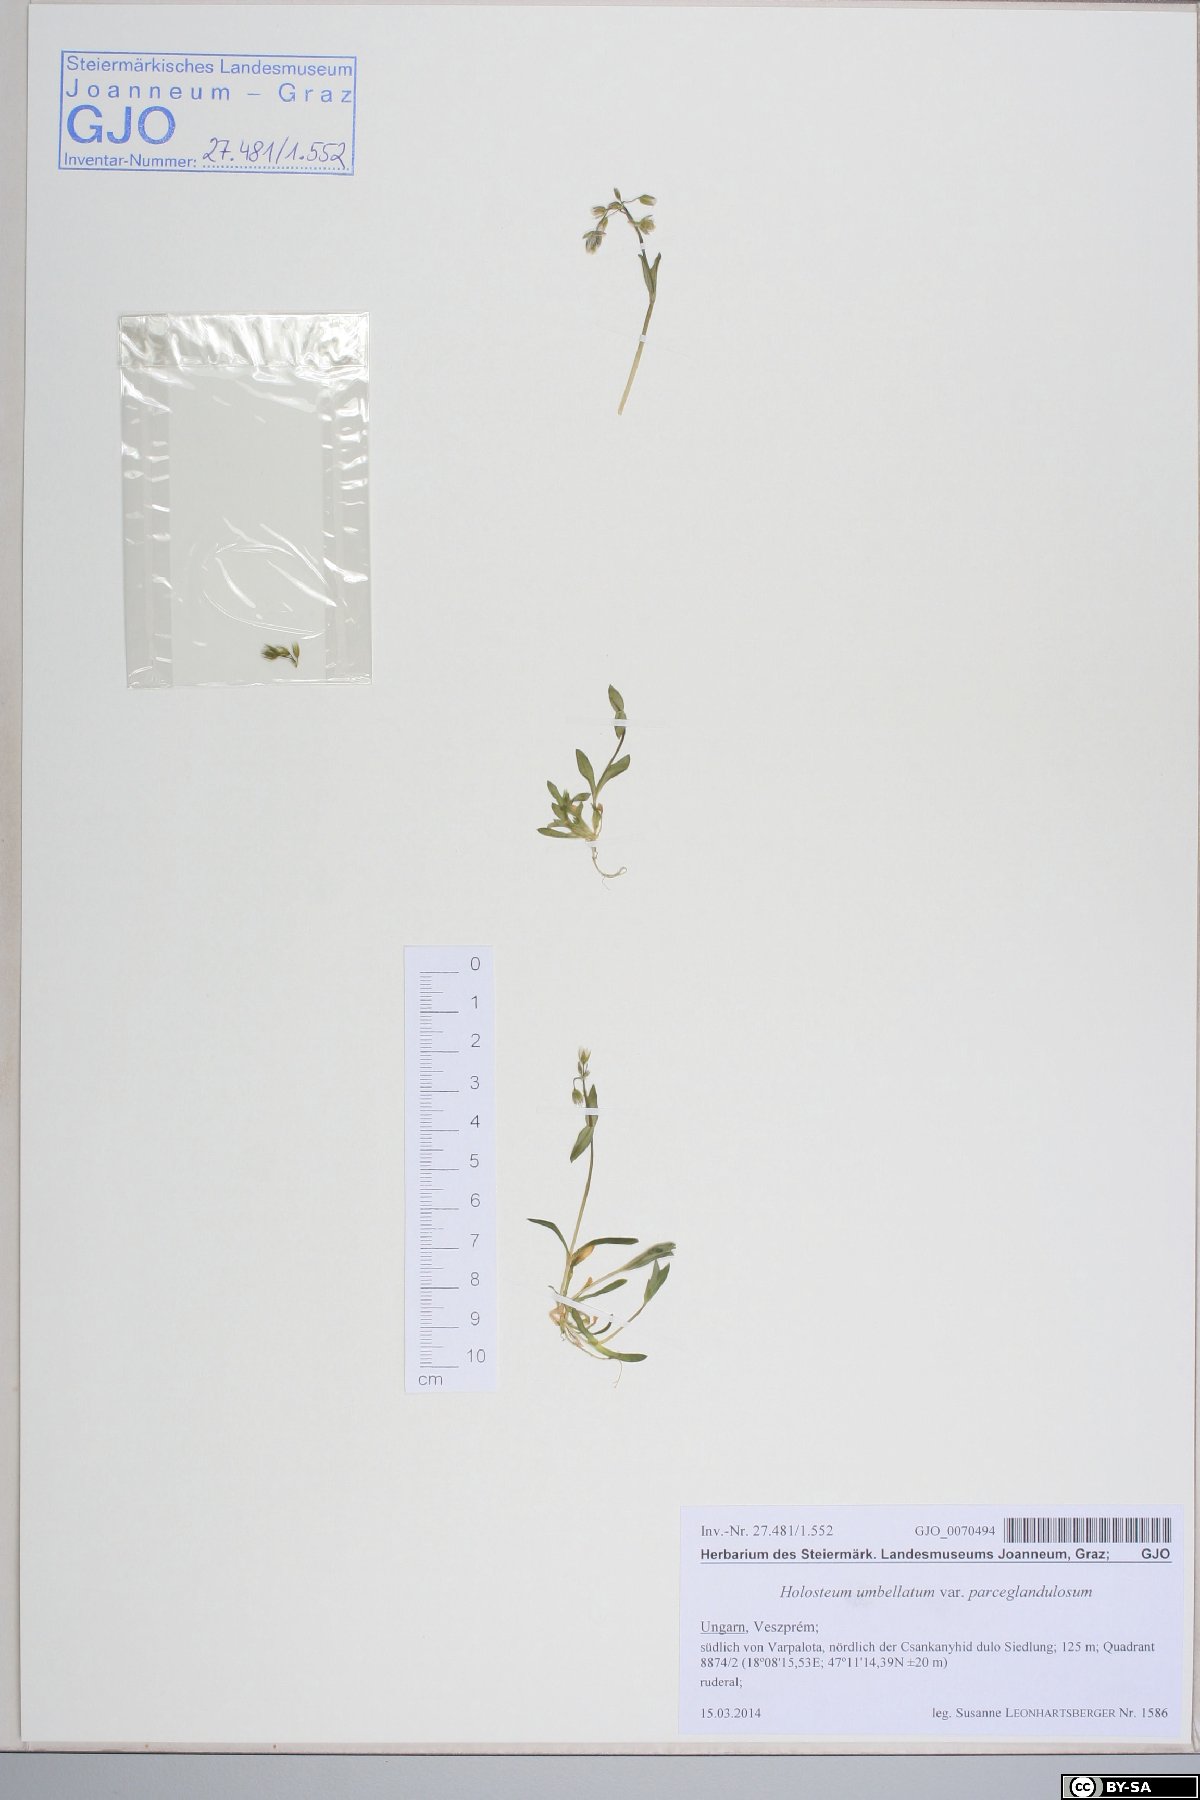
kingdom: Plantae
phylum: Tracheophyta
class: Magnoliopsida
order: Caryophyllales
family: Caryophyllaceae
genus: Holosteum
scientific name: Holosteum umbellatum
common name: Jagged chickweed
